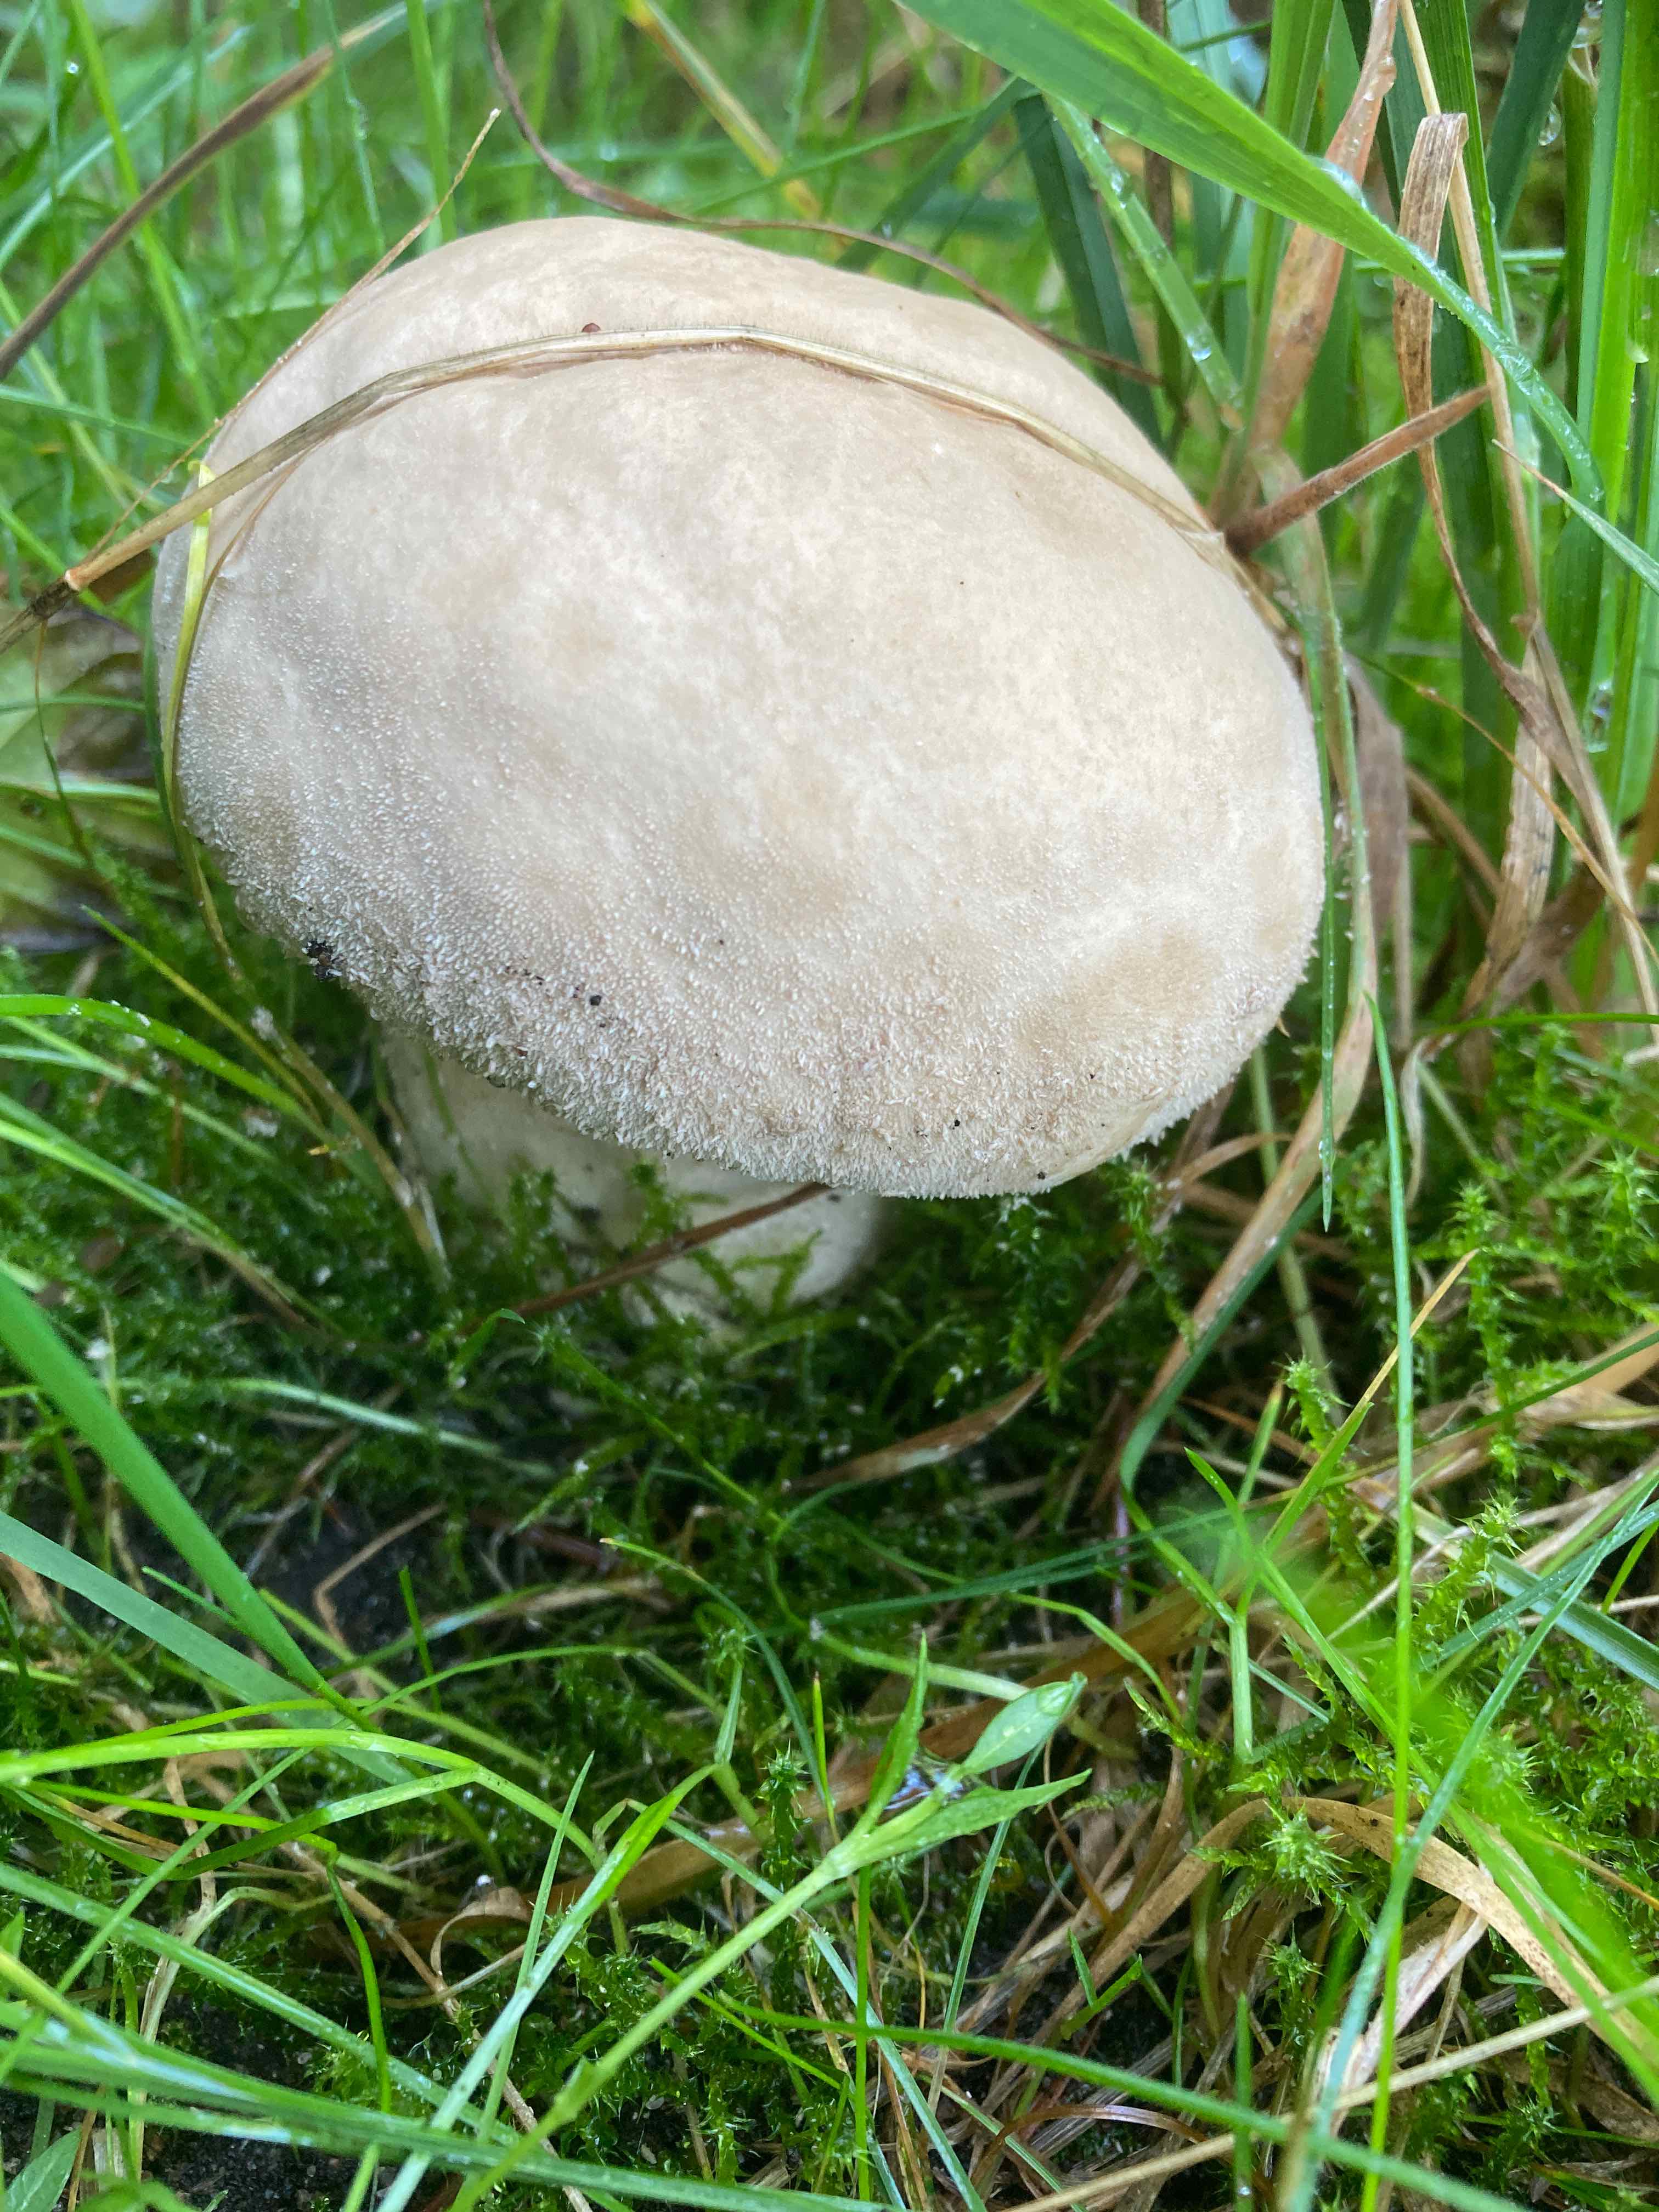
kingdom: Fungi
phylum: Basidiomycota
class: Agaricomycetes
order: Agaricales
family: Lycoperdaceae
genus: Bovistella
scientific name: Bovistella utriformis
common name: skællet støvbold
